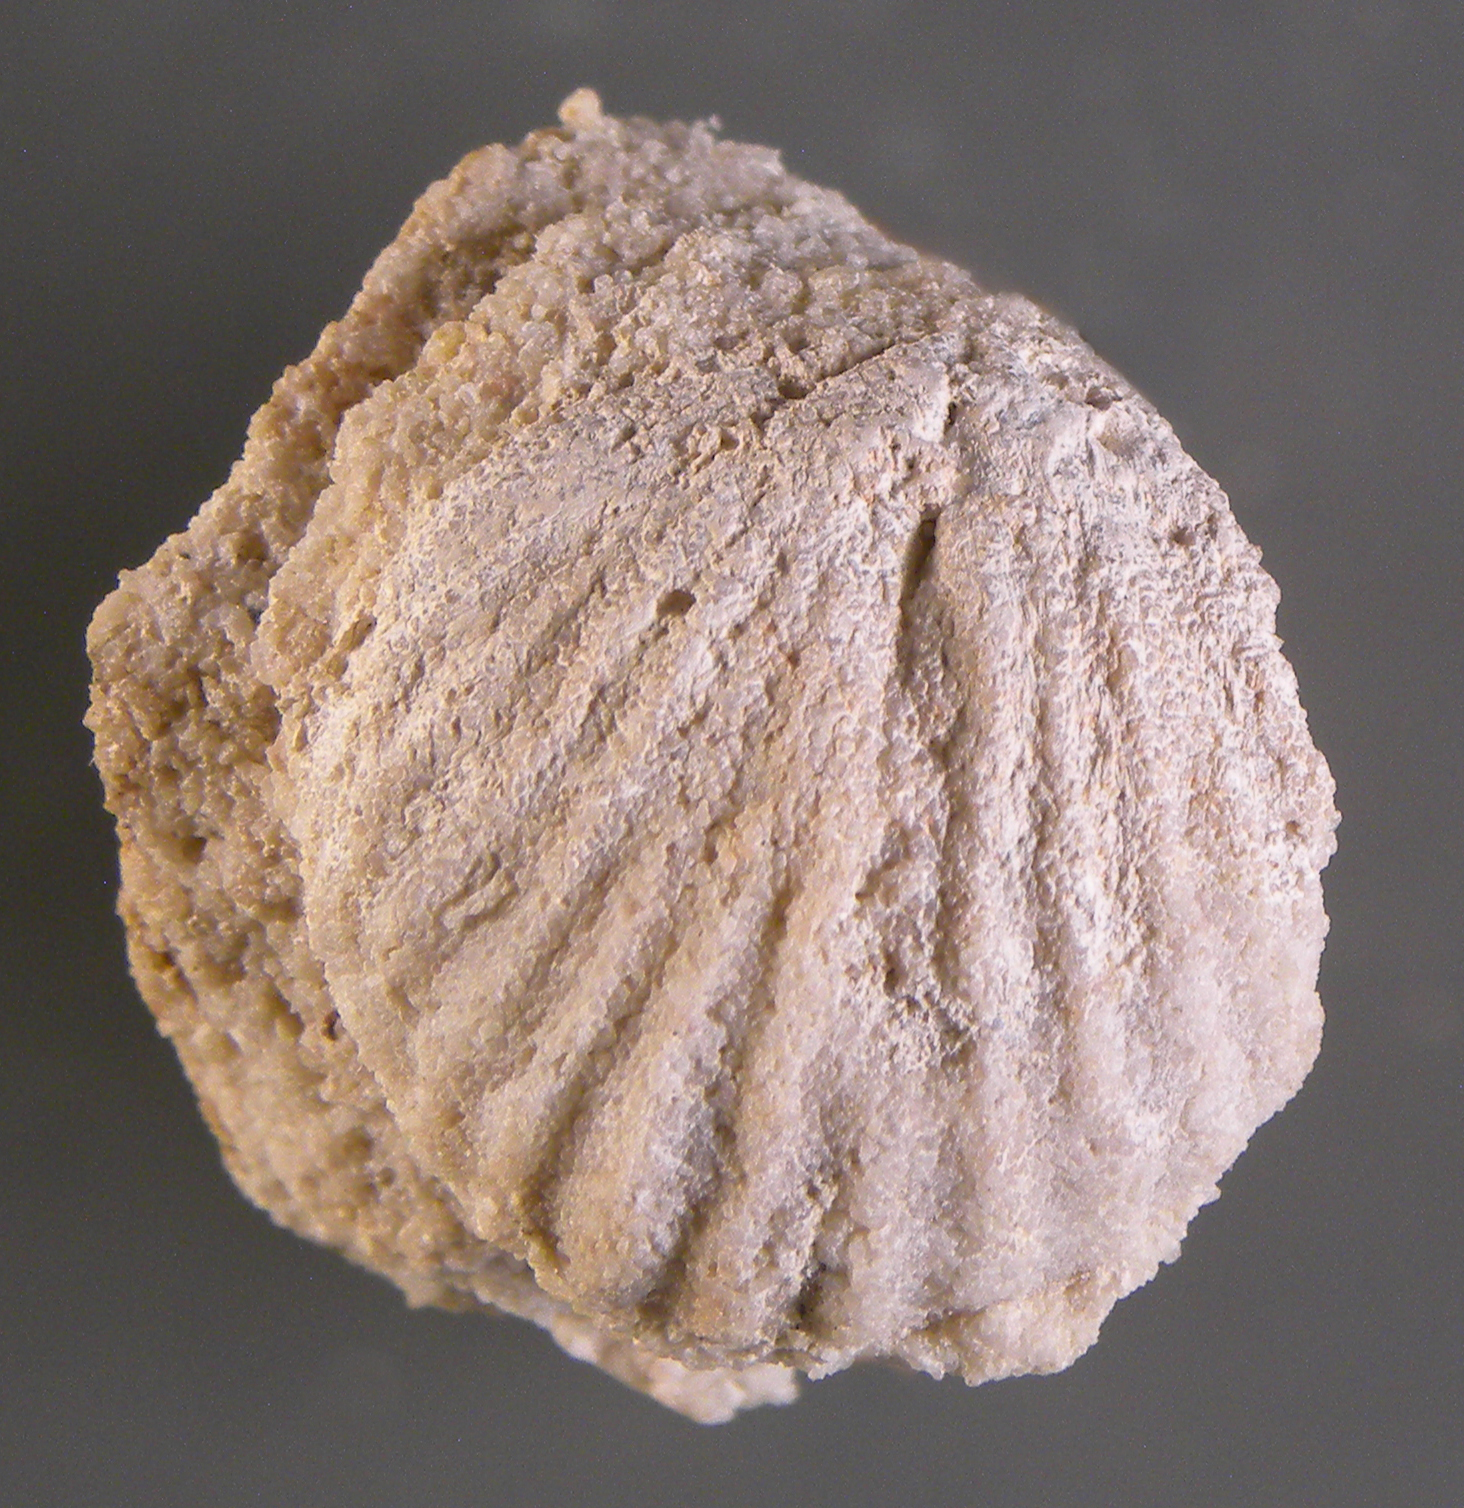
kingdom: Animalia
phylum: Brachiopoda
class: Rhynchonellata
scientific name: Rhynchonellata
